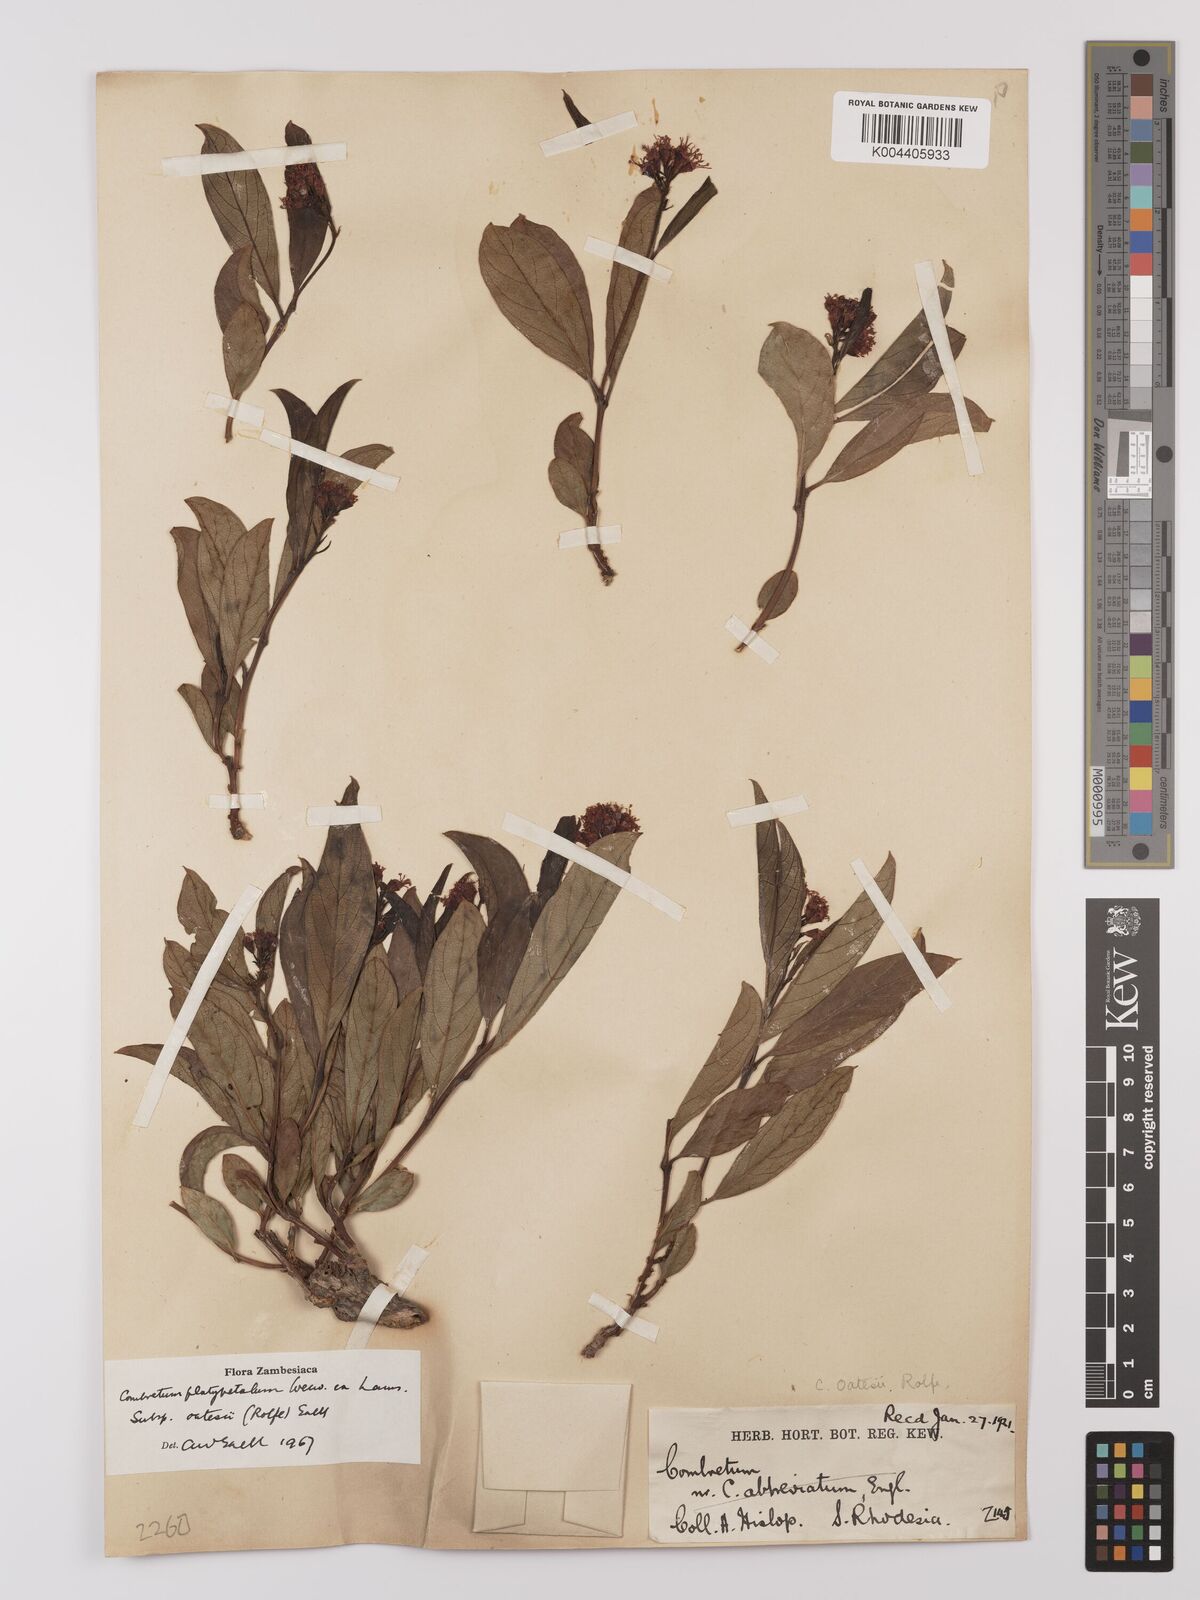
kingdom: Plantae
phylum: Tracheophyta
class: Magnoliopsida
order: Myrtales
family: Combretaceae
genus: Combretum
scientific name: Combretum oatesii
